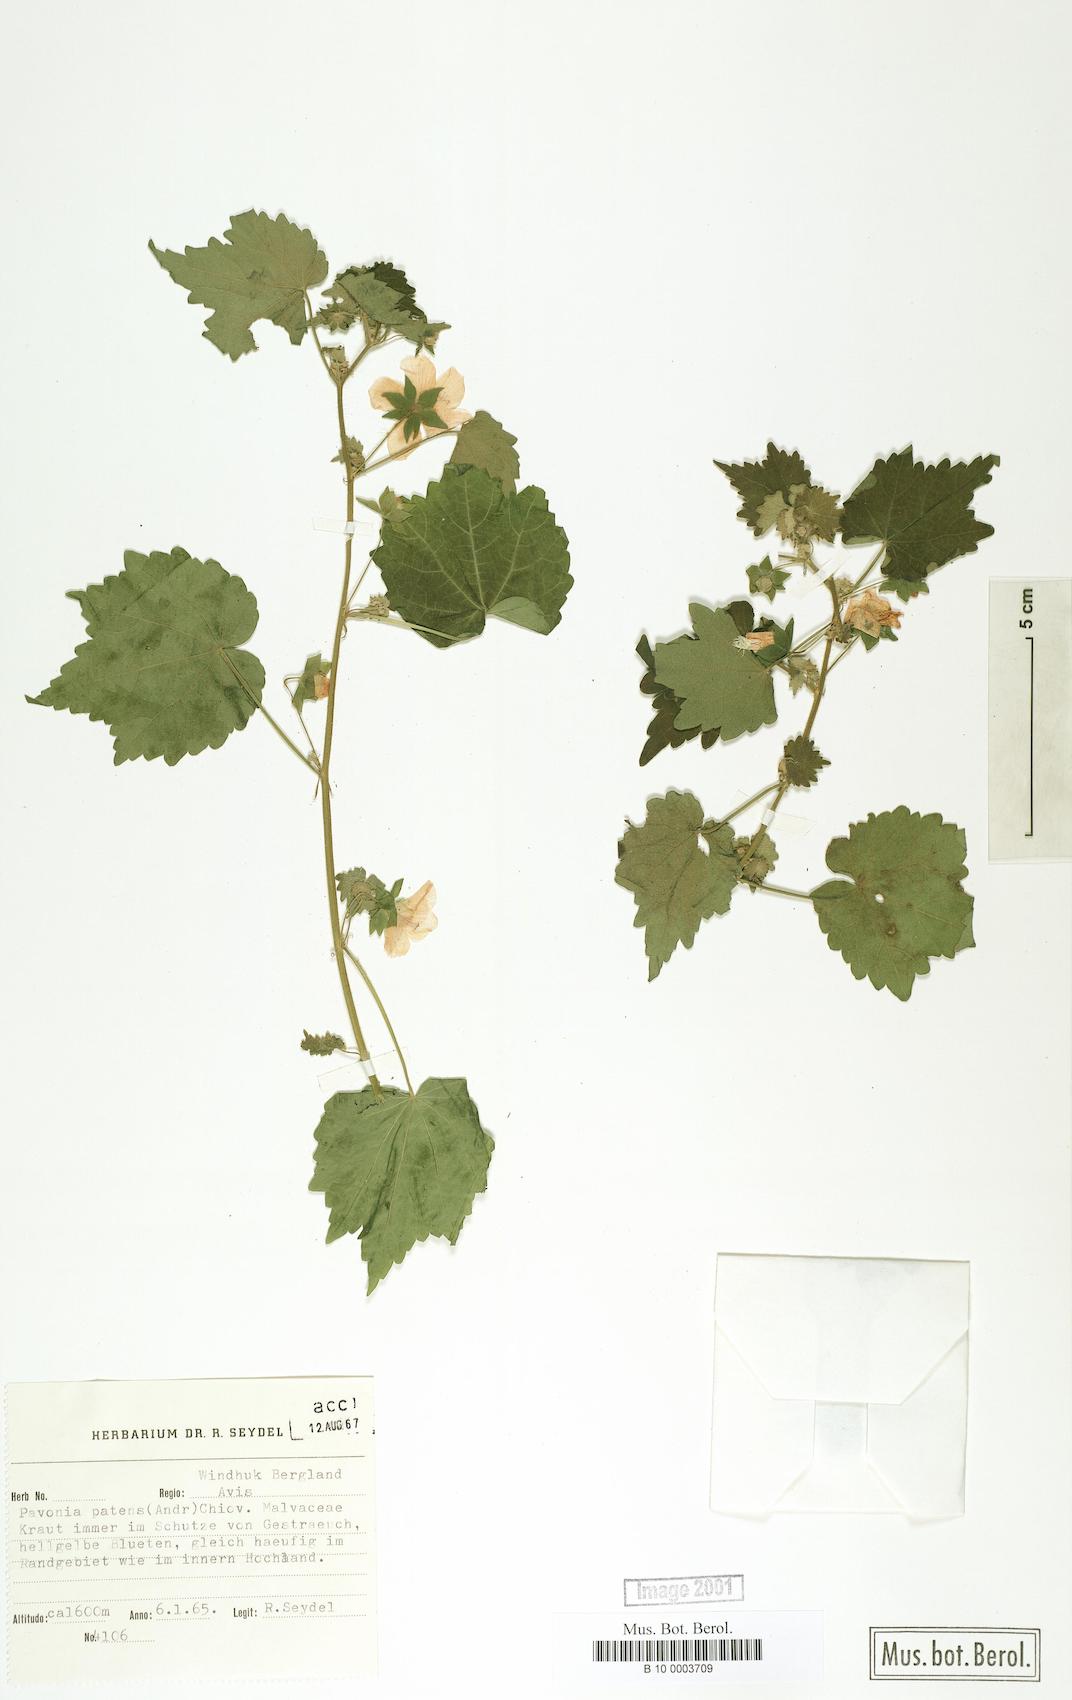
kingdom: Plantae
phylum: Tracheophyta
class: Magnoliopsida
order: Malvales
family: Malvaceae
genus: Abutilon
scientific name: Abutilon mauritianum
